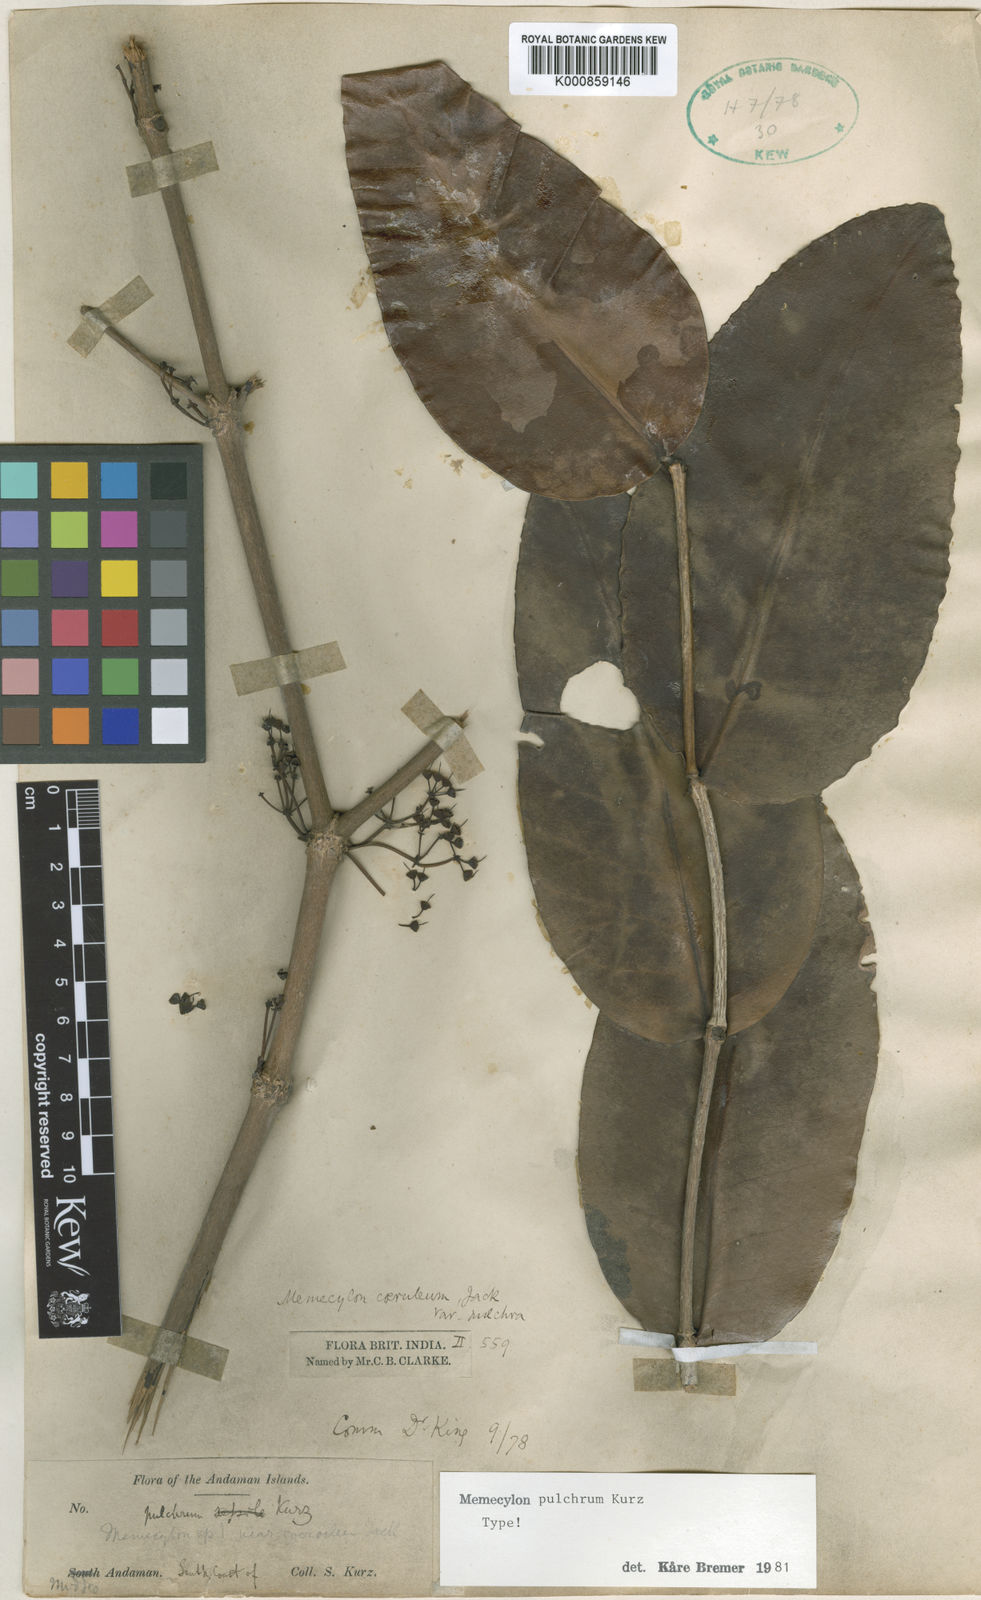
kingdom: Plantae
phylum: Tracheophyta
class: Magnoliopsida
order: Myrtales
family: Melastomataceae
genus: Memecylon
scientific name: Memecylon
